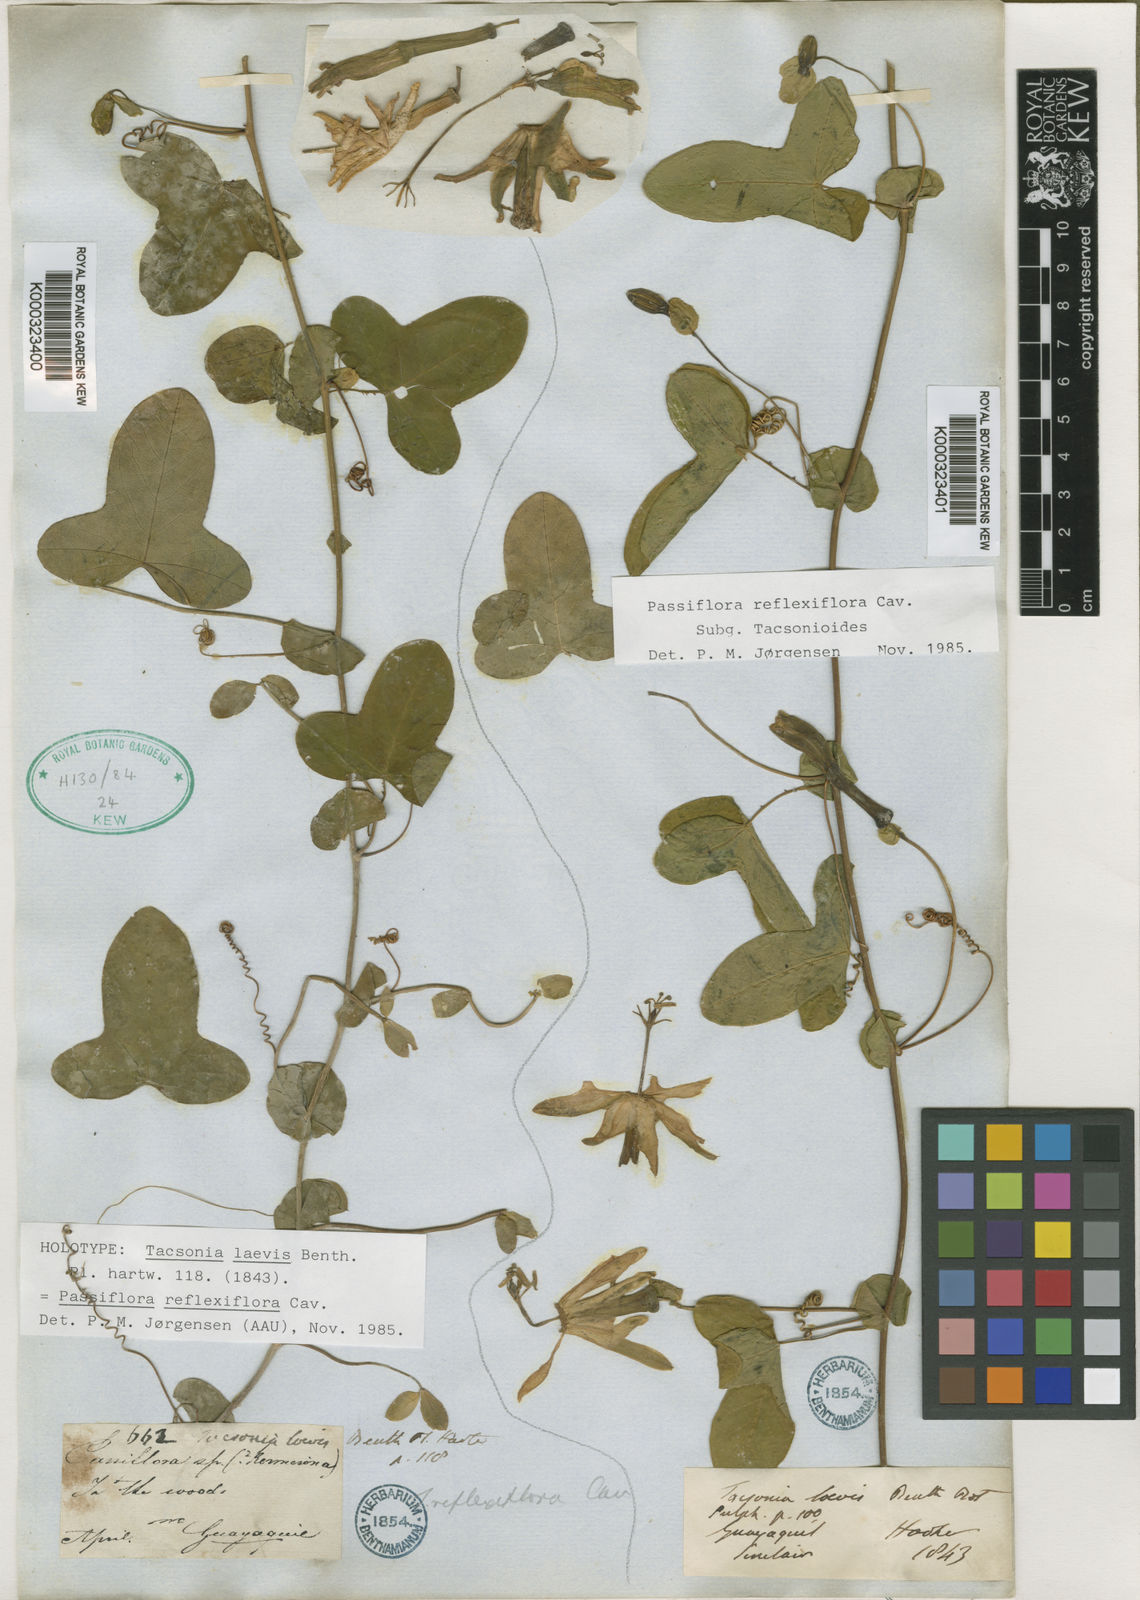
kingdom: Plantae
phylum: Tracheophyta
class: Magnoliopsida
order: Malpighiales
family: Passifloraceae
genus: Passiflora
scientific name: Passiflora reflexiflora
